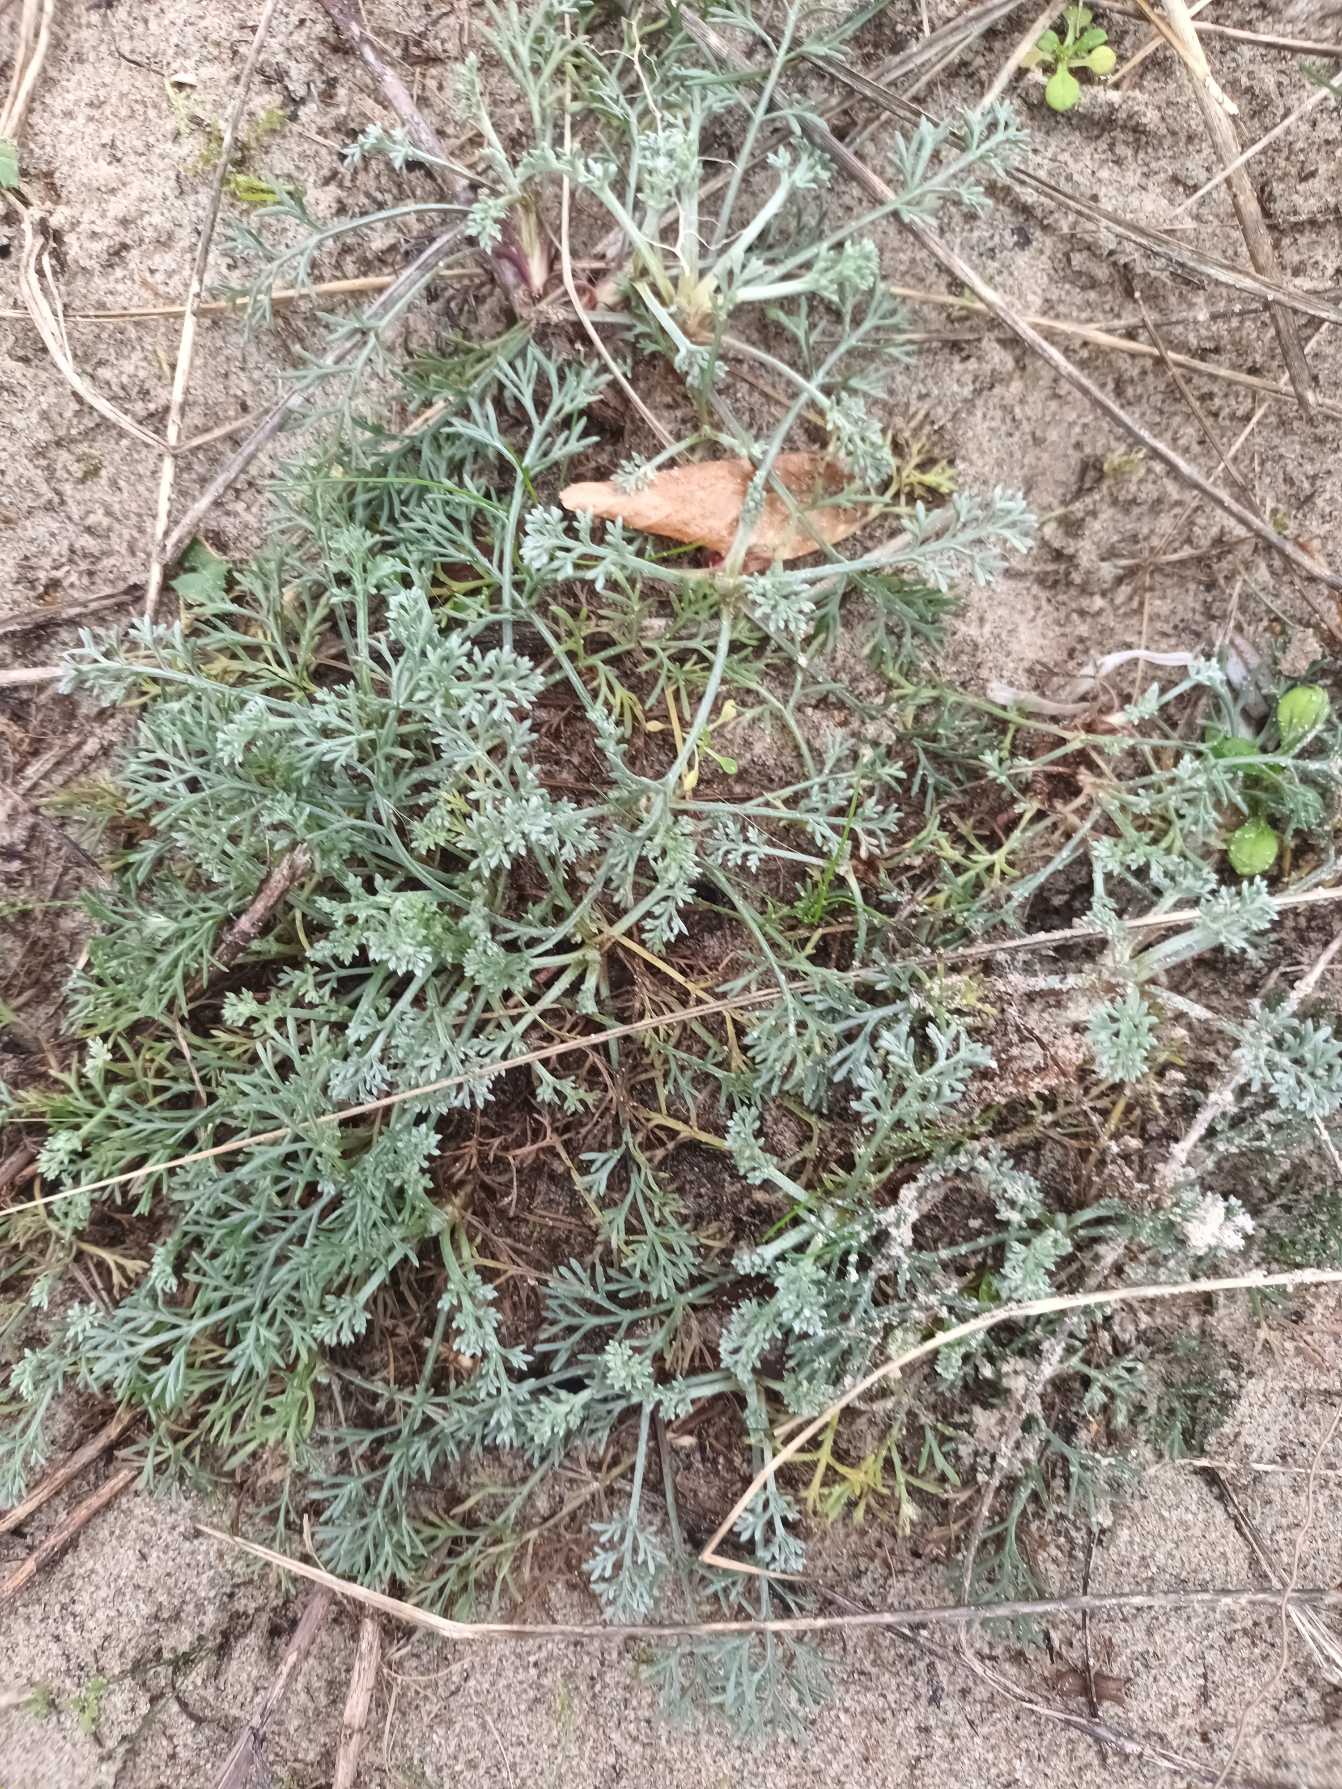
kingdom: Plantae
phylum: Tracheophyta
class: Magnoliopsida
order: Asterales
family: Asteraceae
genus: Artemisia
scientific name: Artemisia campestris
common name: Mark-bynke
